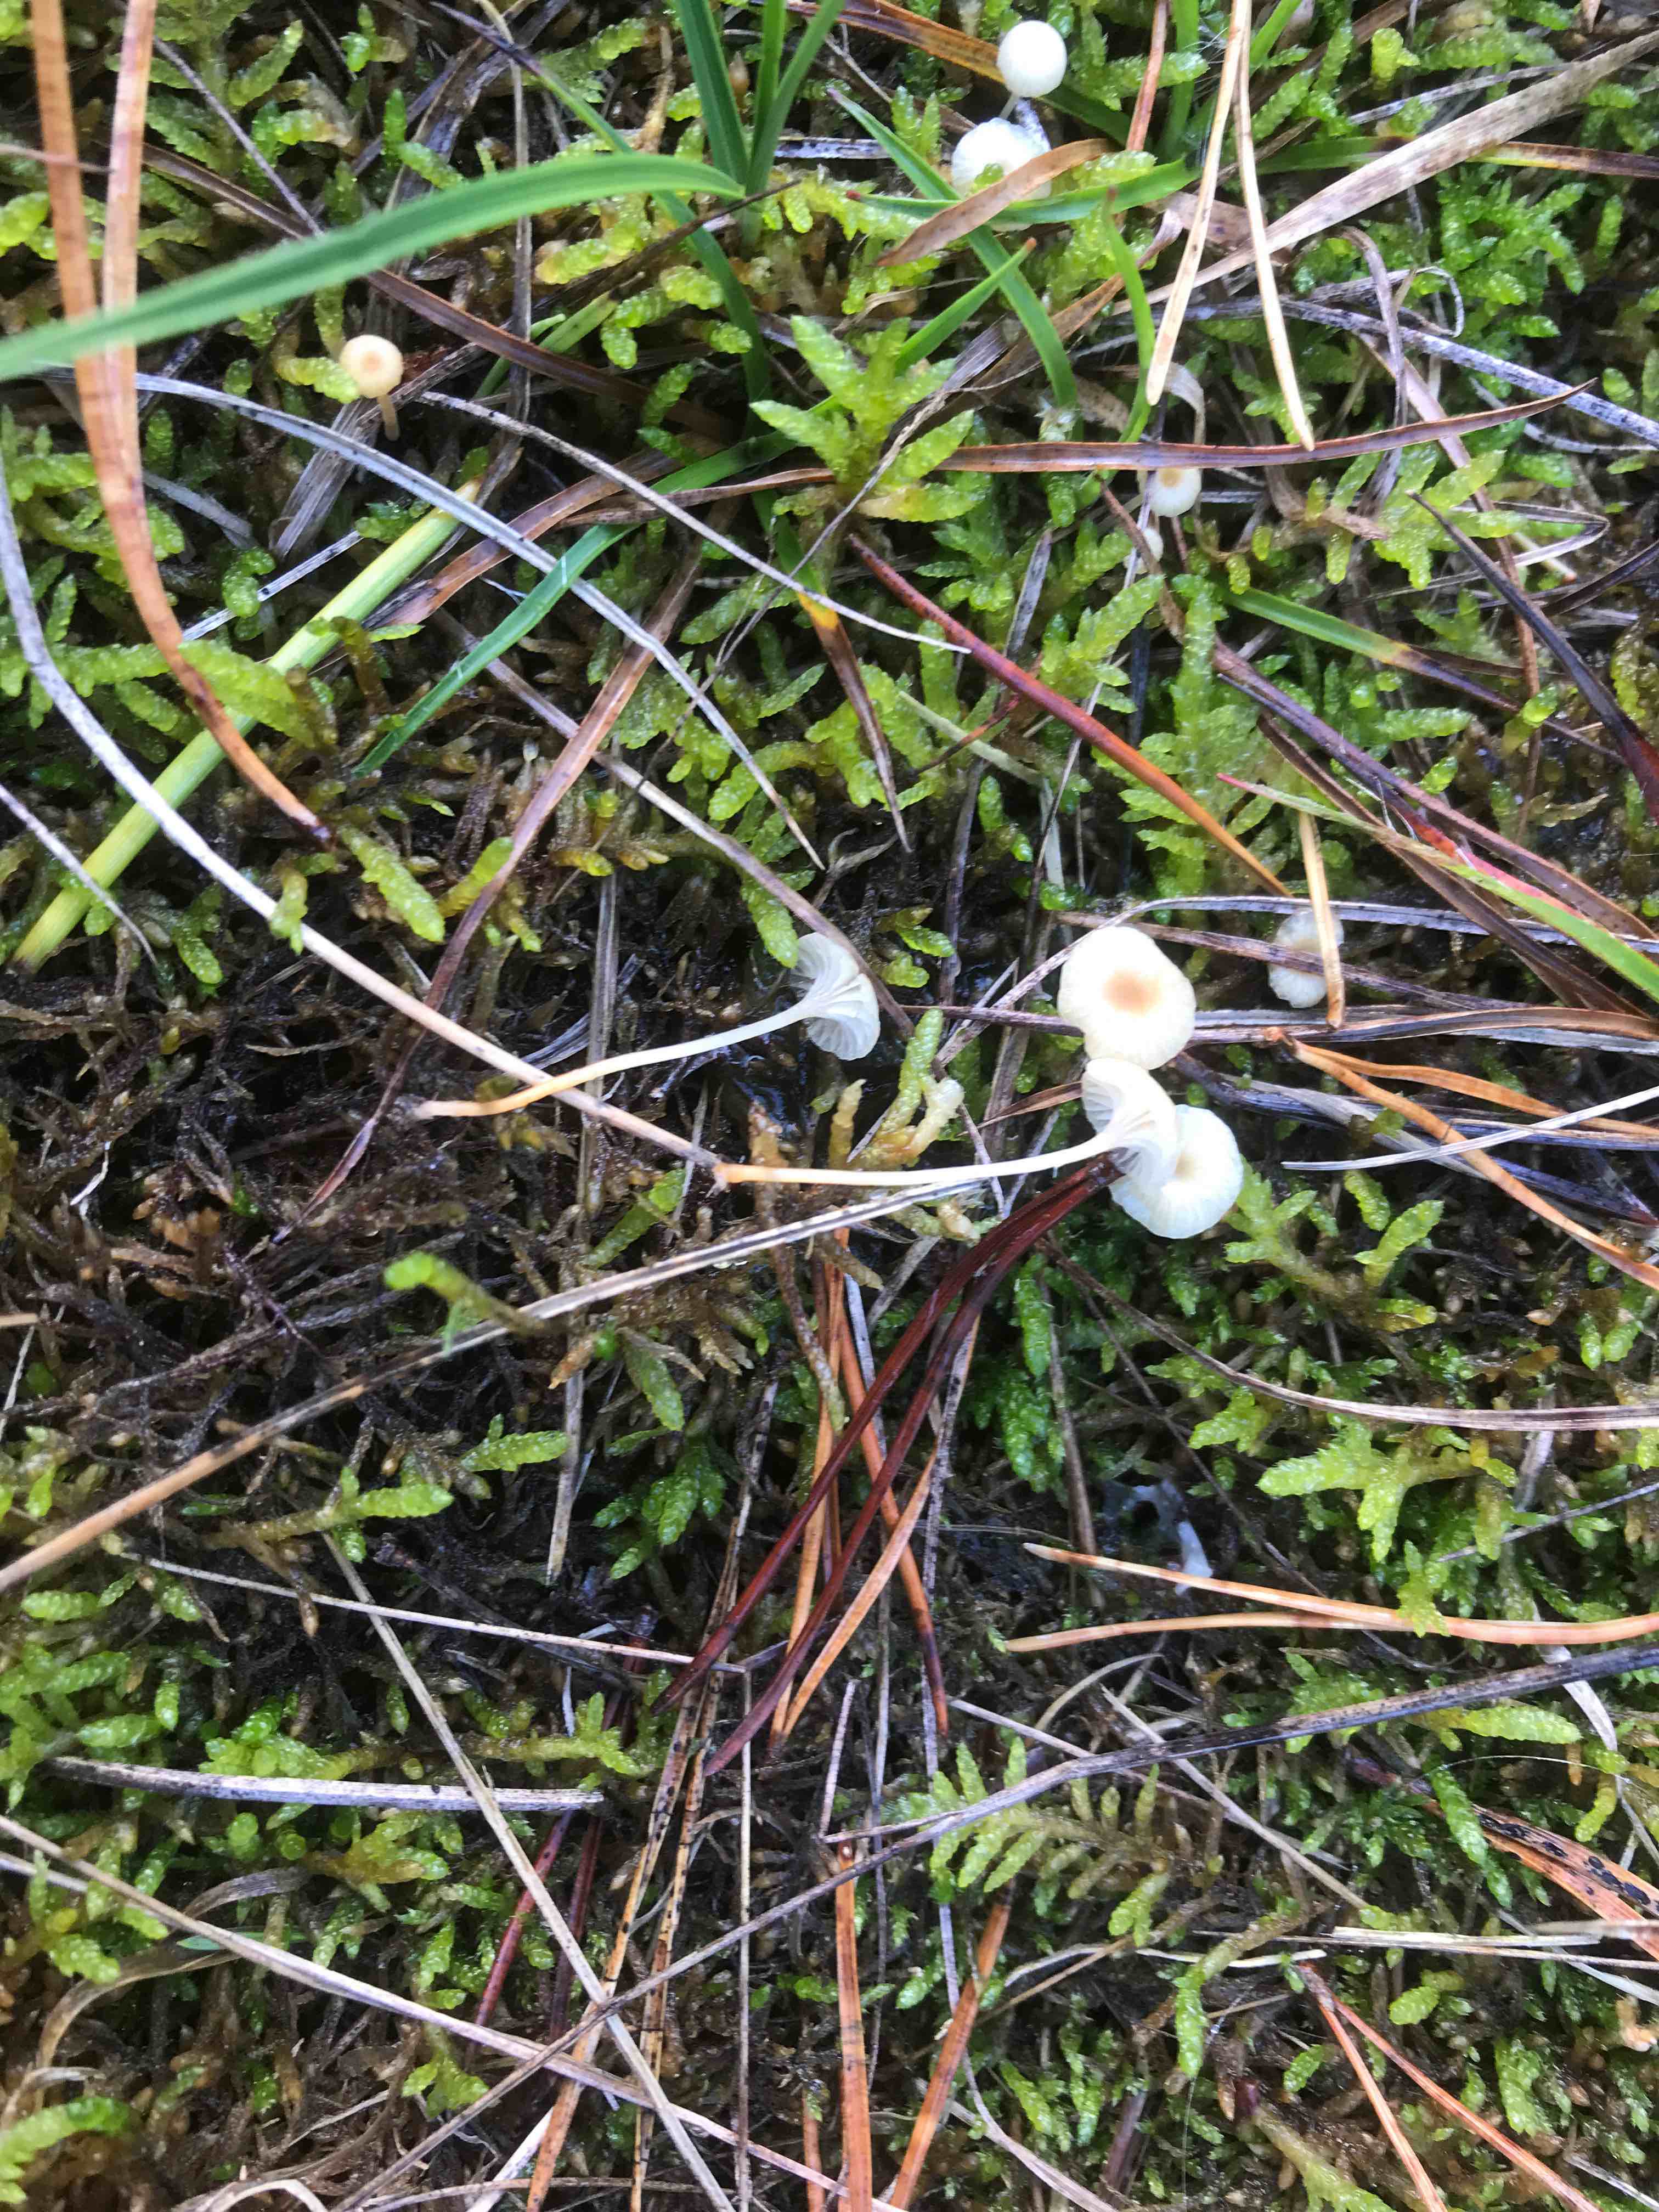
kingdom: Fungi
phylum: Basidiomycota
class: Agaricomycetes
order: Hymenochaetales
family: Rickenellaceae
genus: Rickenella
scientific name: Rickenella fibula
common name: orange mosnavlehat
